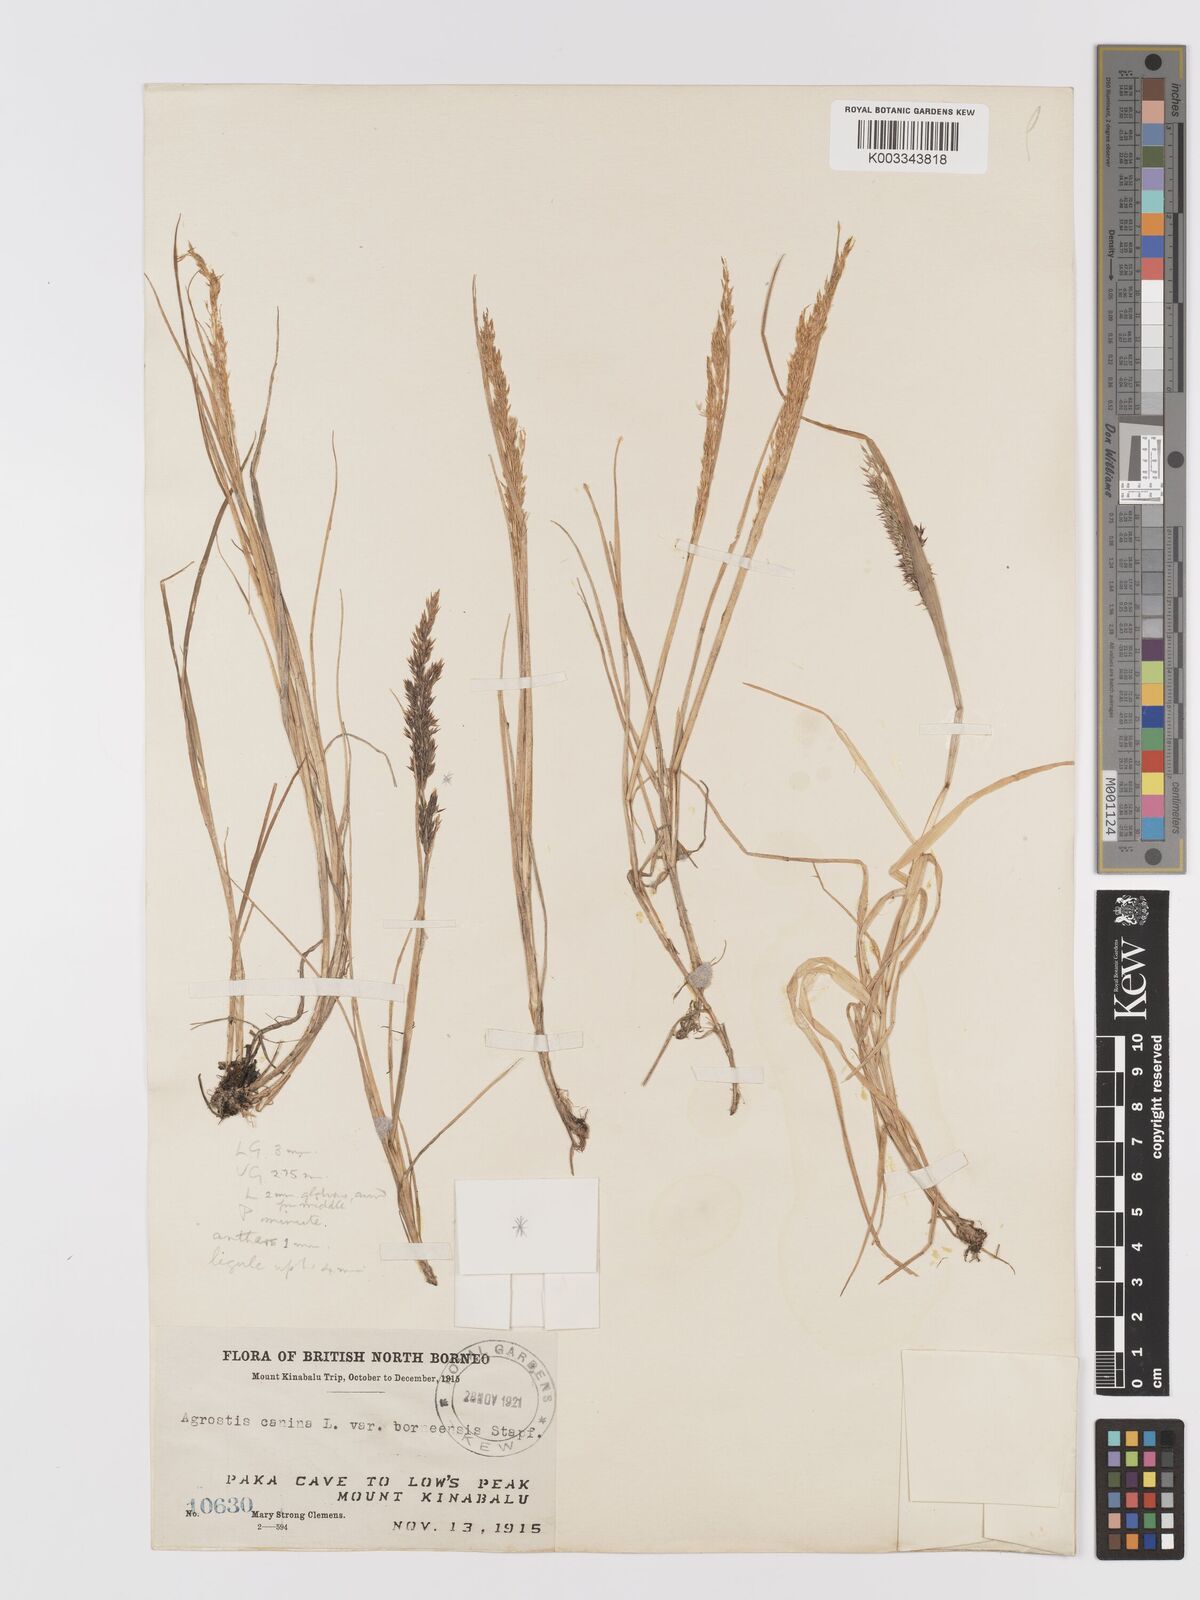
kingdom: Plantae
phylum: Tracheophyta
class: Liliopsida
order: Poales
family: Poaceae
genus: Agrostis
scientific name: Agrostis infirma
